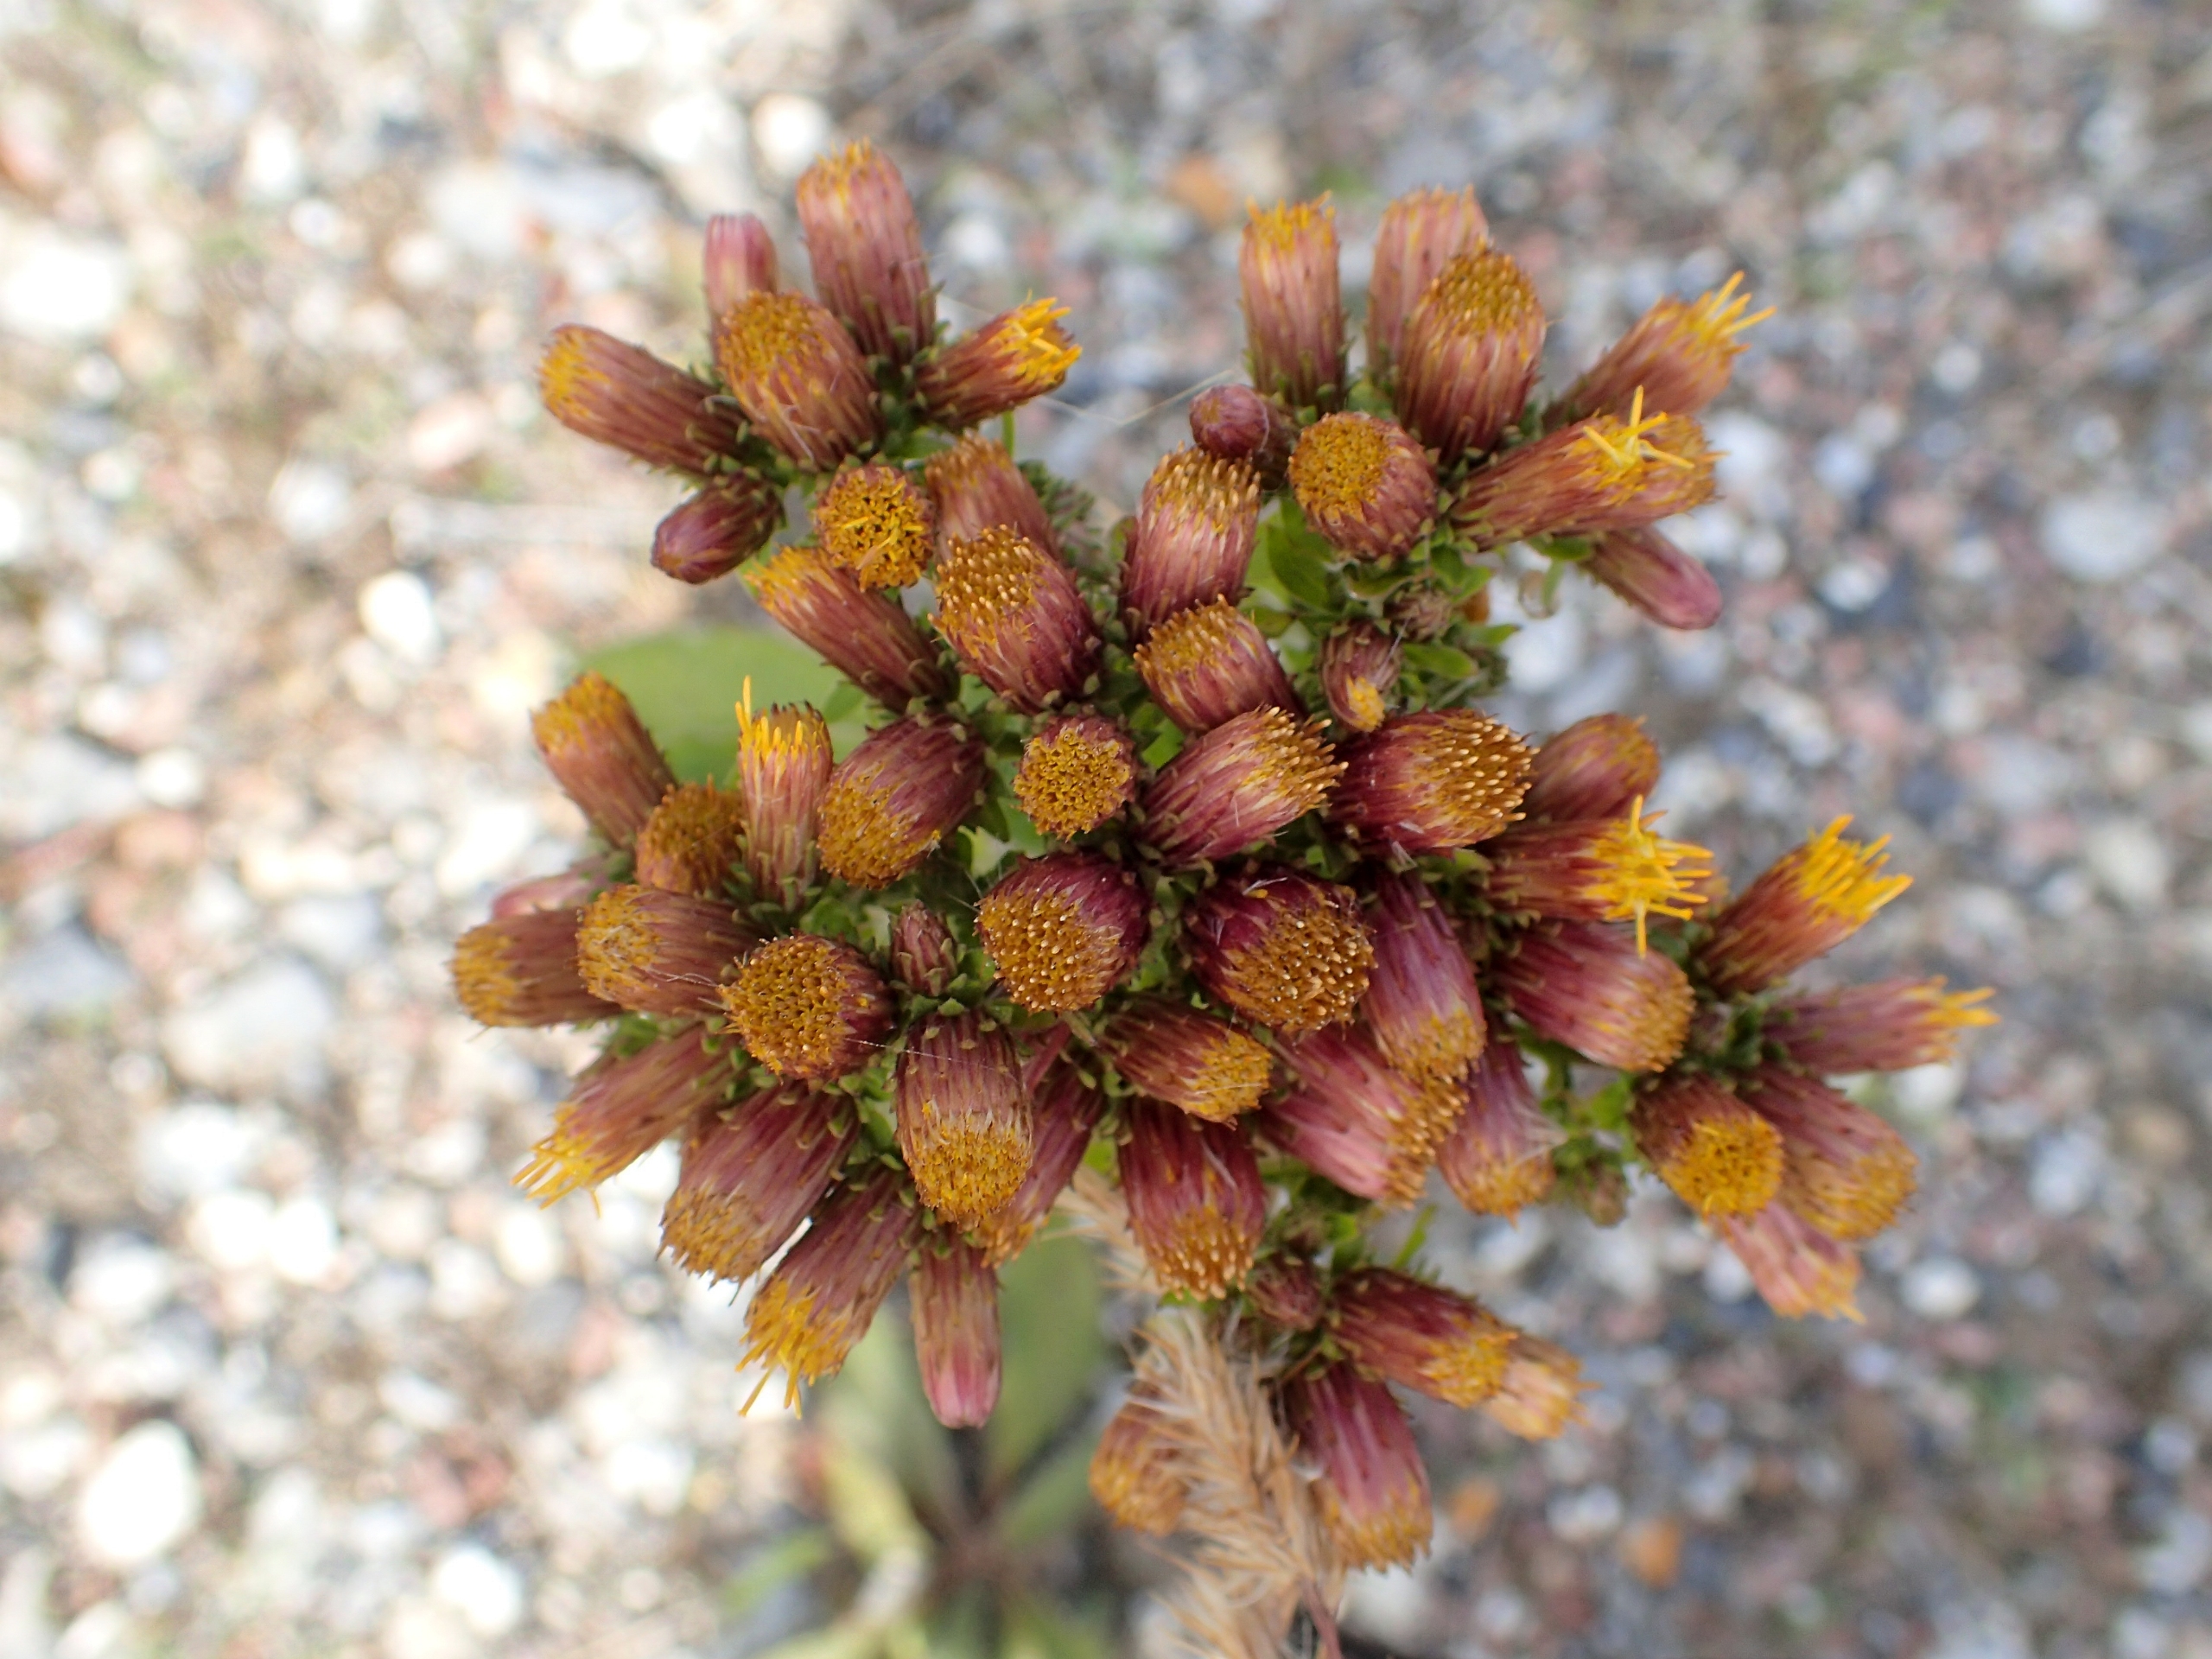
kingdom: Plantae
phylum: Tracheophyta
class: Magnoliopsida
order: Asterales
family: Asteraceae
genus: Pentanema
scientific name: Pentanema squarrosum
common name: Trekløft-alant
